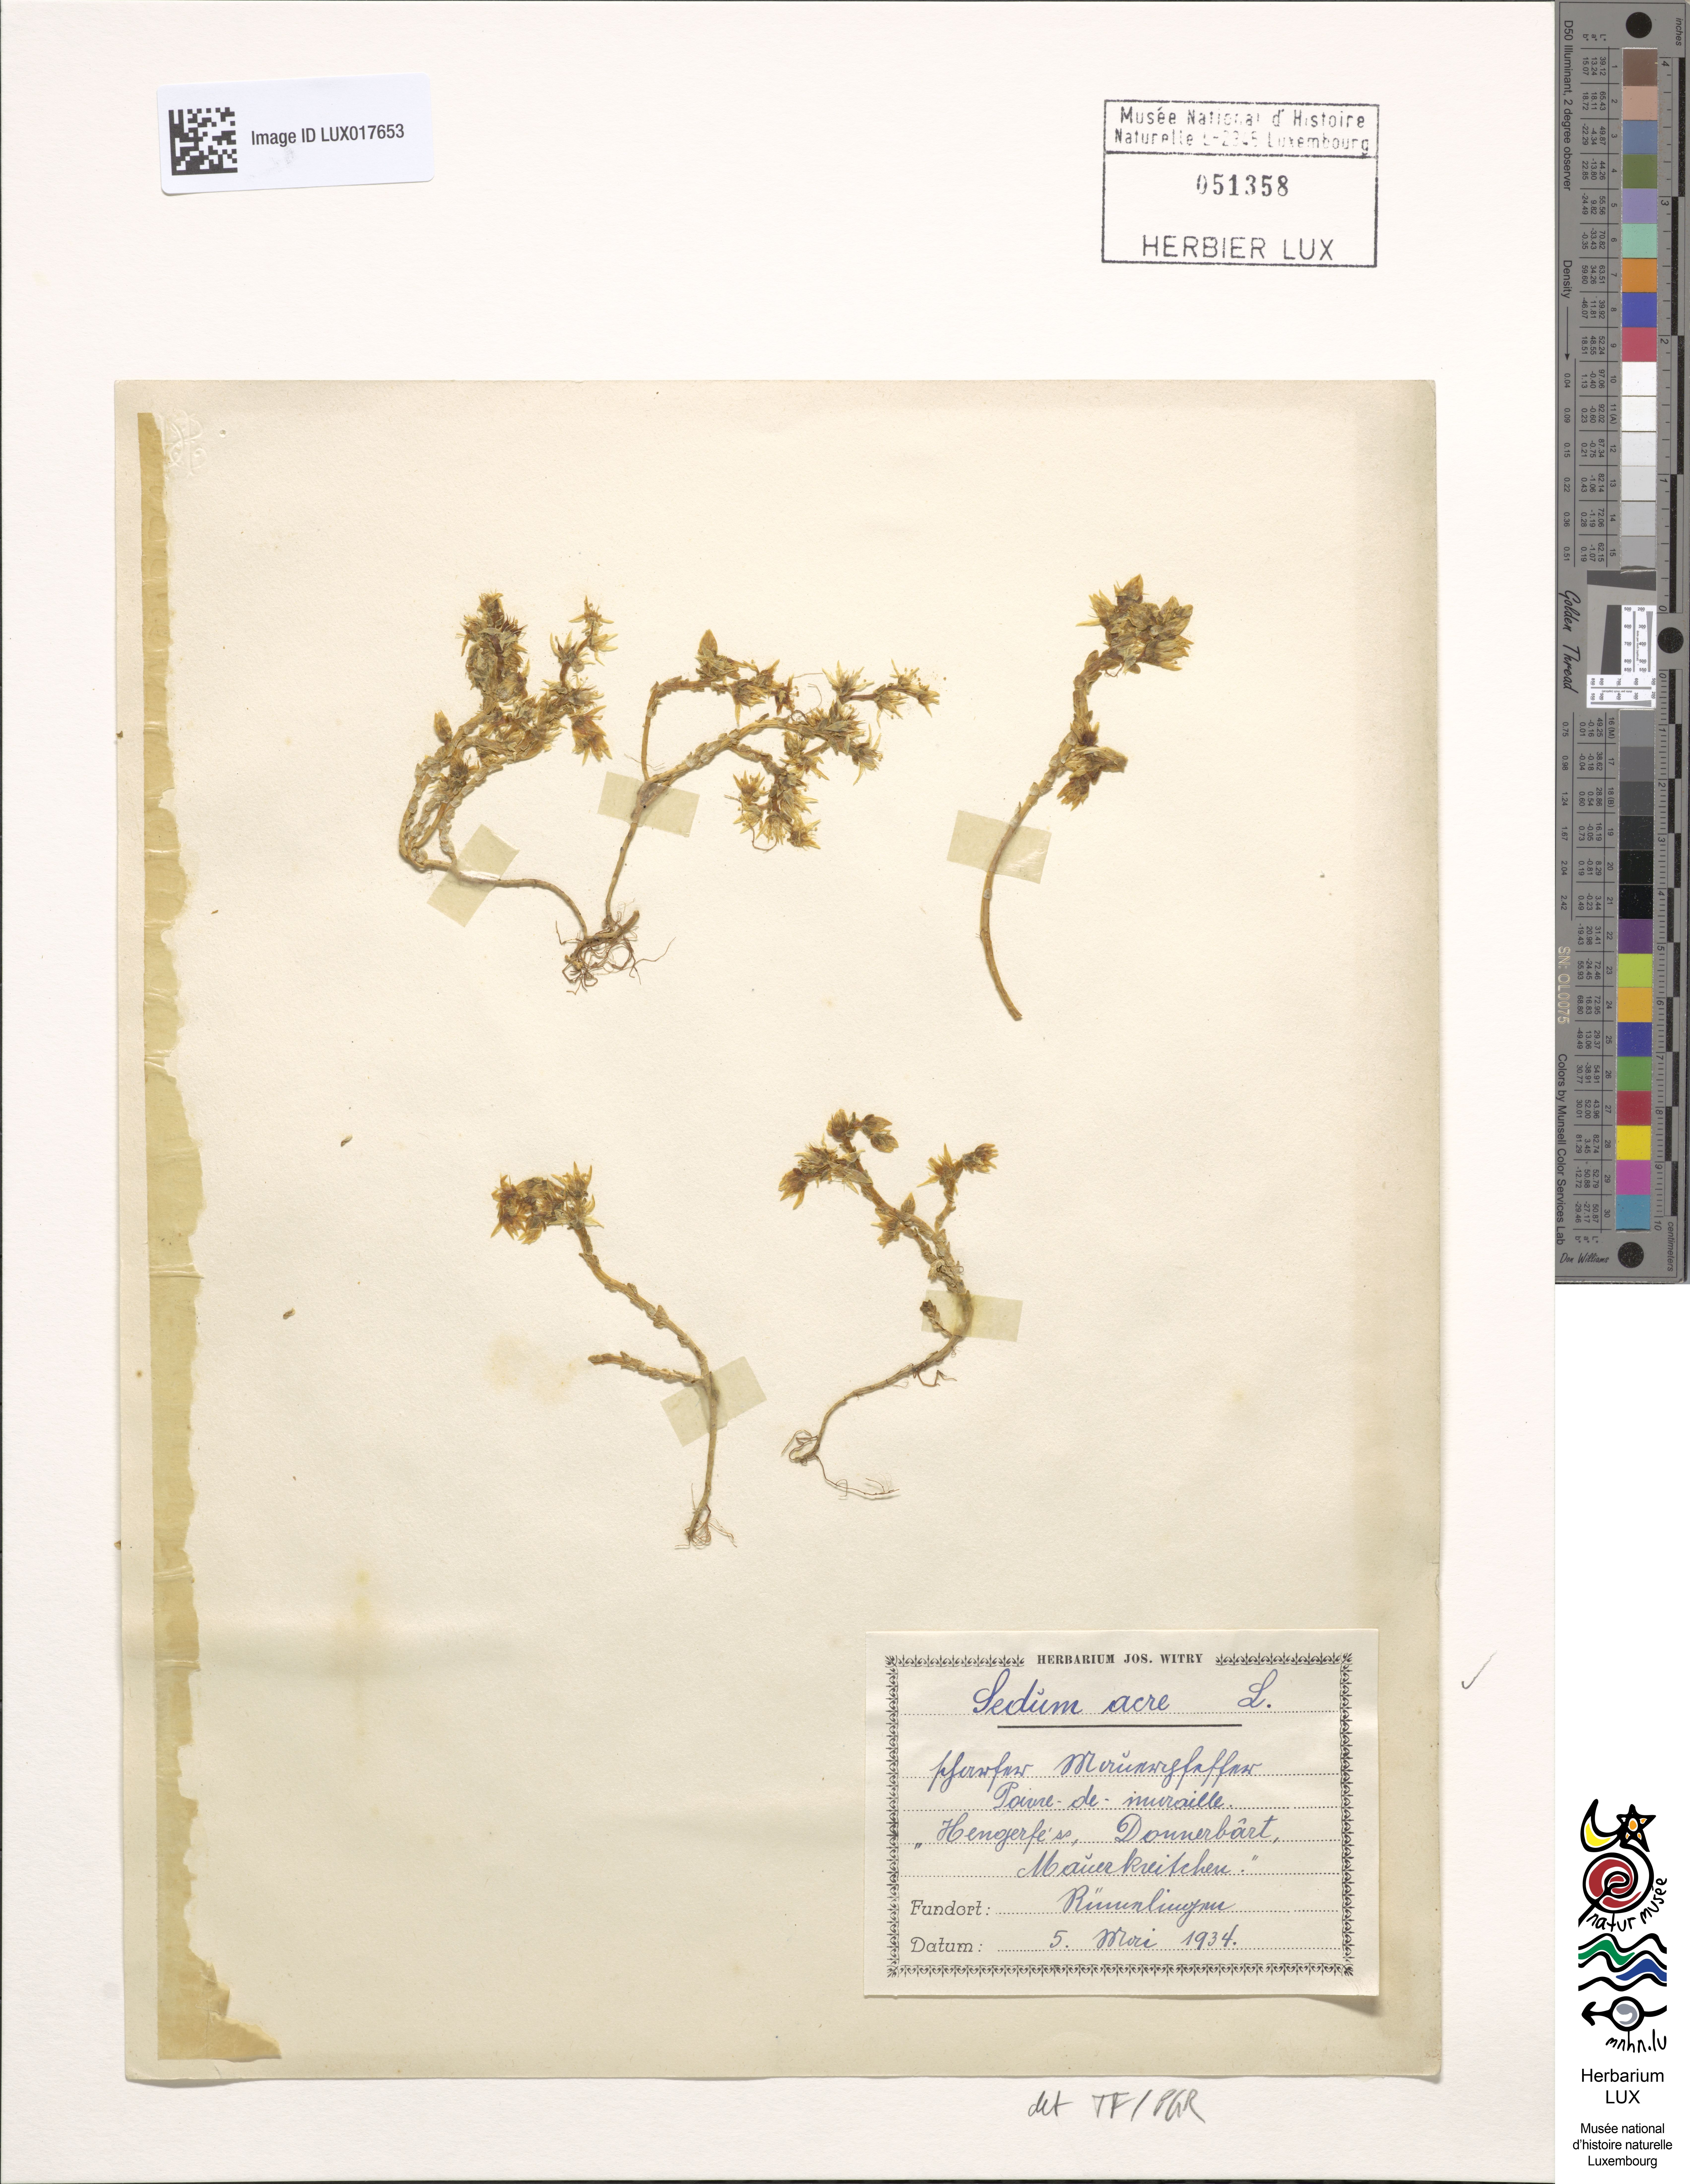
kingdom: Plantae
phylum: Tracheophyta
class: Magnoliopsida
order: Saxifragales
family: Crassulaceae
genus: Sedum
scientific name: Sedum acre
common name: Biting stonecrop
